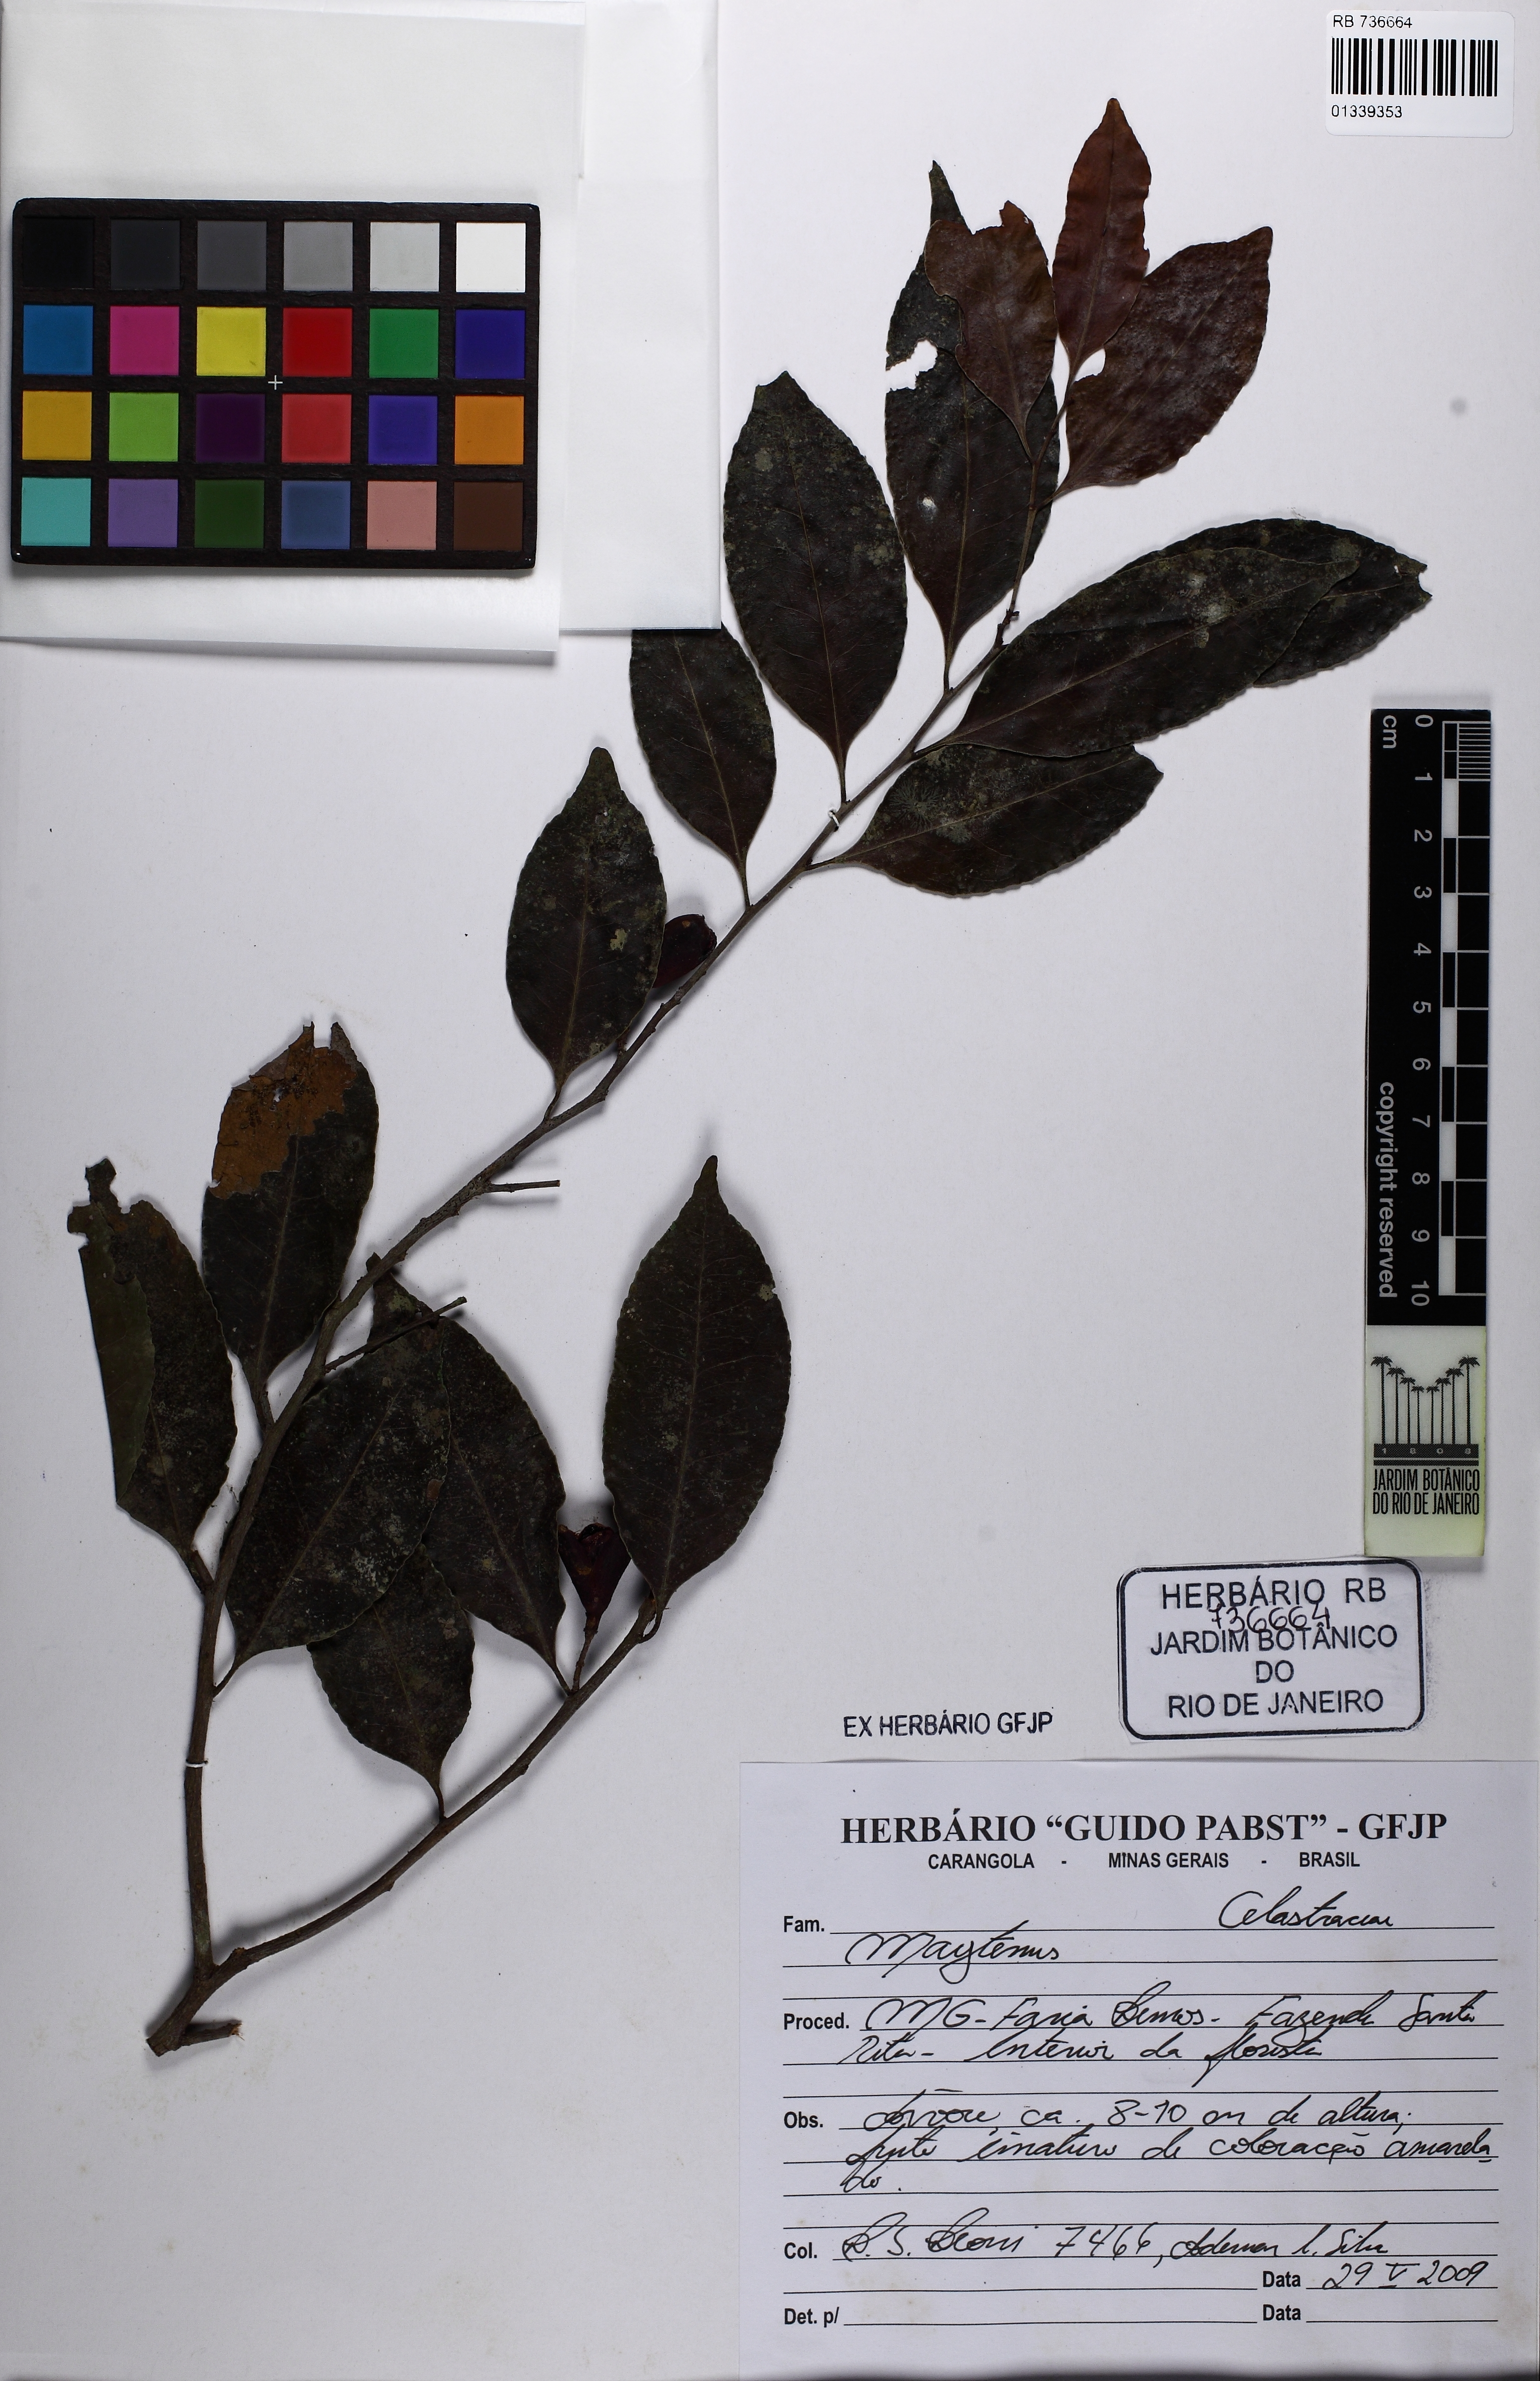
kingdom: Plantae
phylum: Tracheophyta
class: Magnoliopsida
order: Celastrales
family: Celastraceae
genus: Maytenus
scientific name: Maytenus
